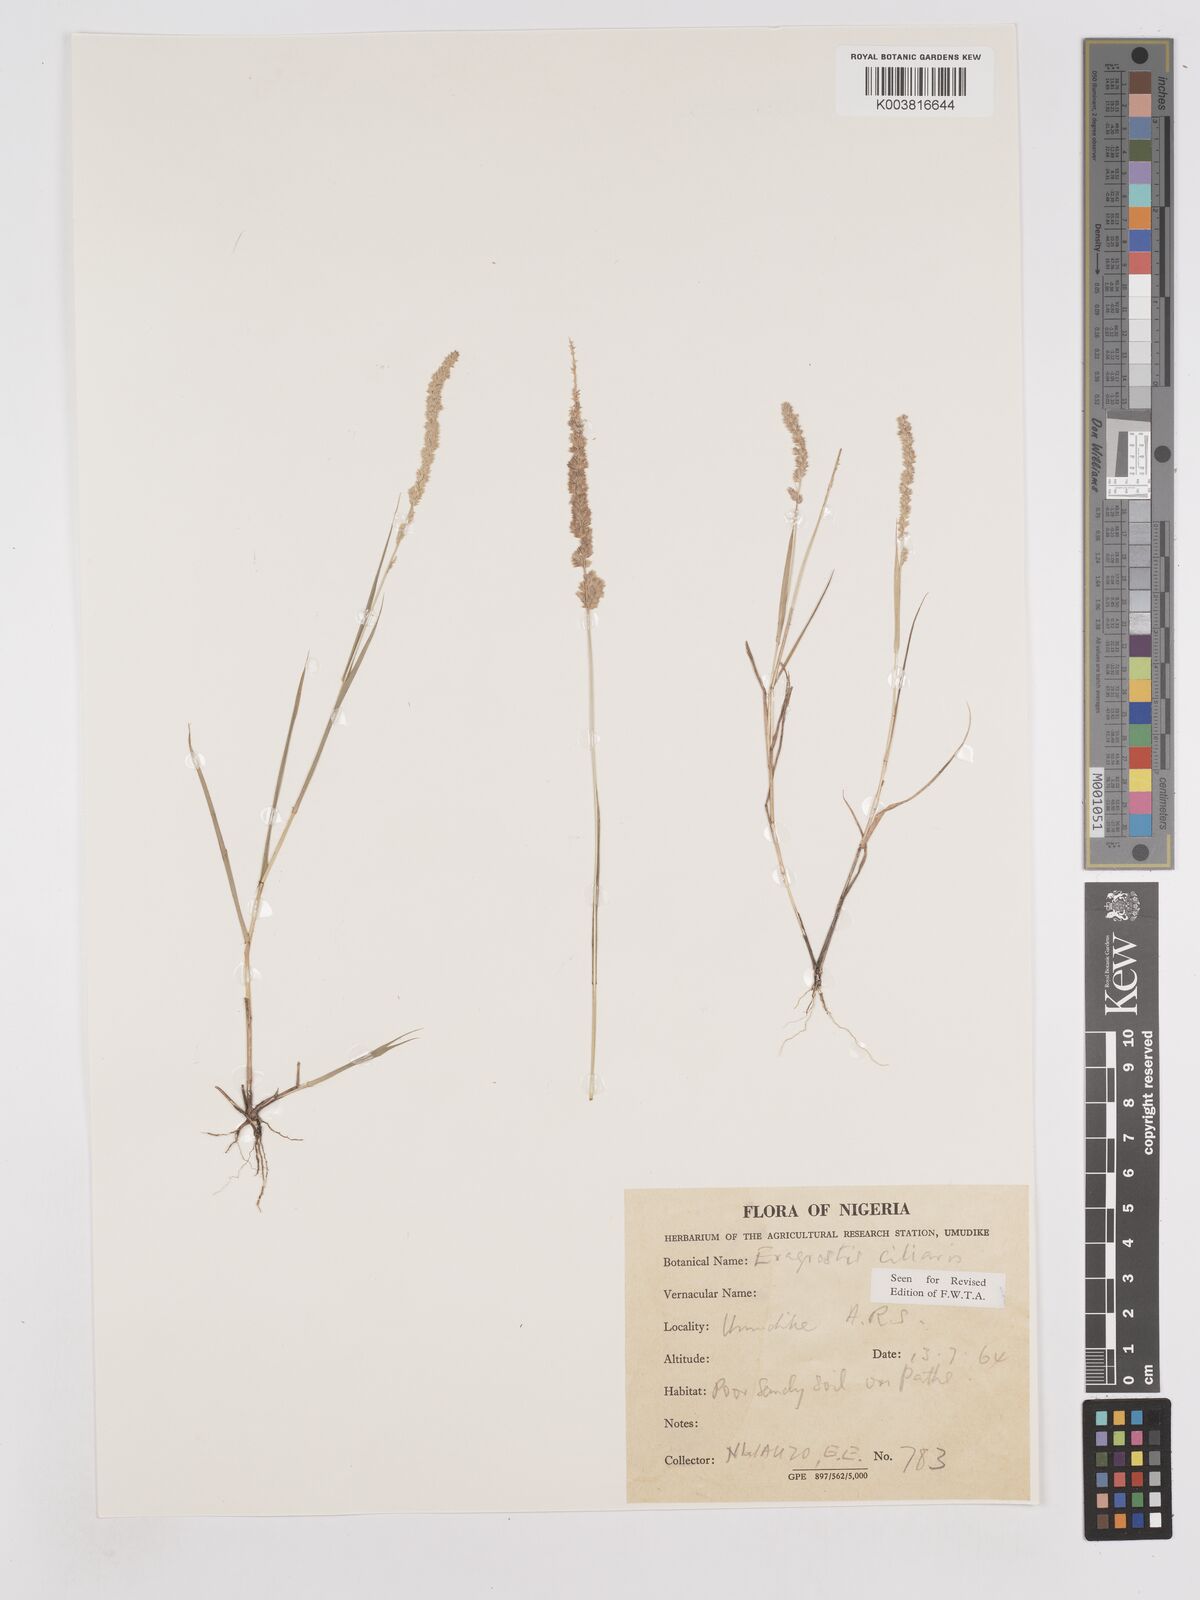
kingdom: Plantae
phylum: Tracheophyta
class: Liliopsida
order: Poales
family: Poaceae
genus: Eragrostis
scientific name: Eragrostis ciliaris
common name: Gophertail lovegrass
